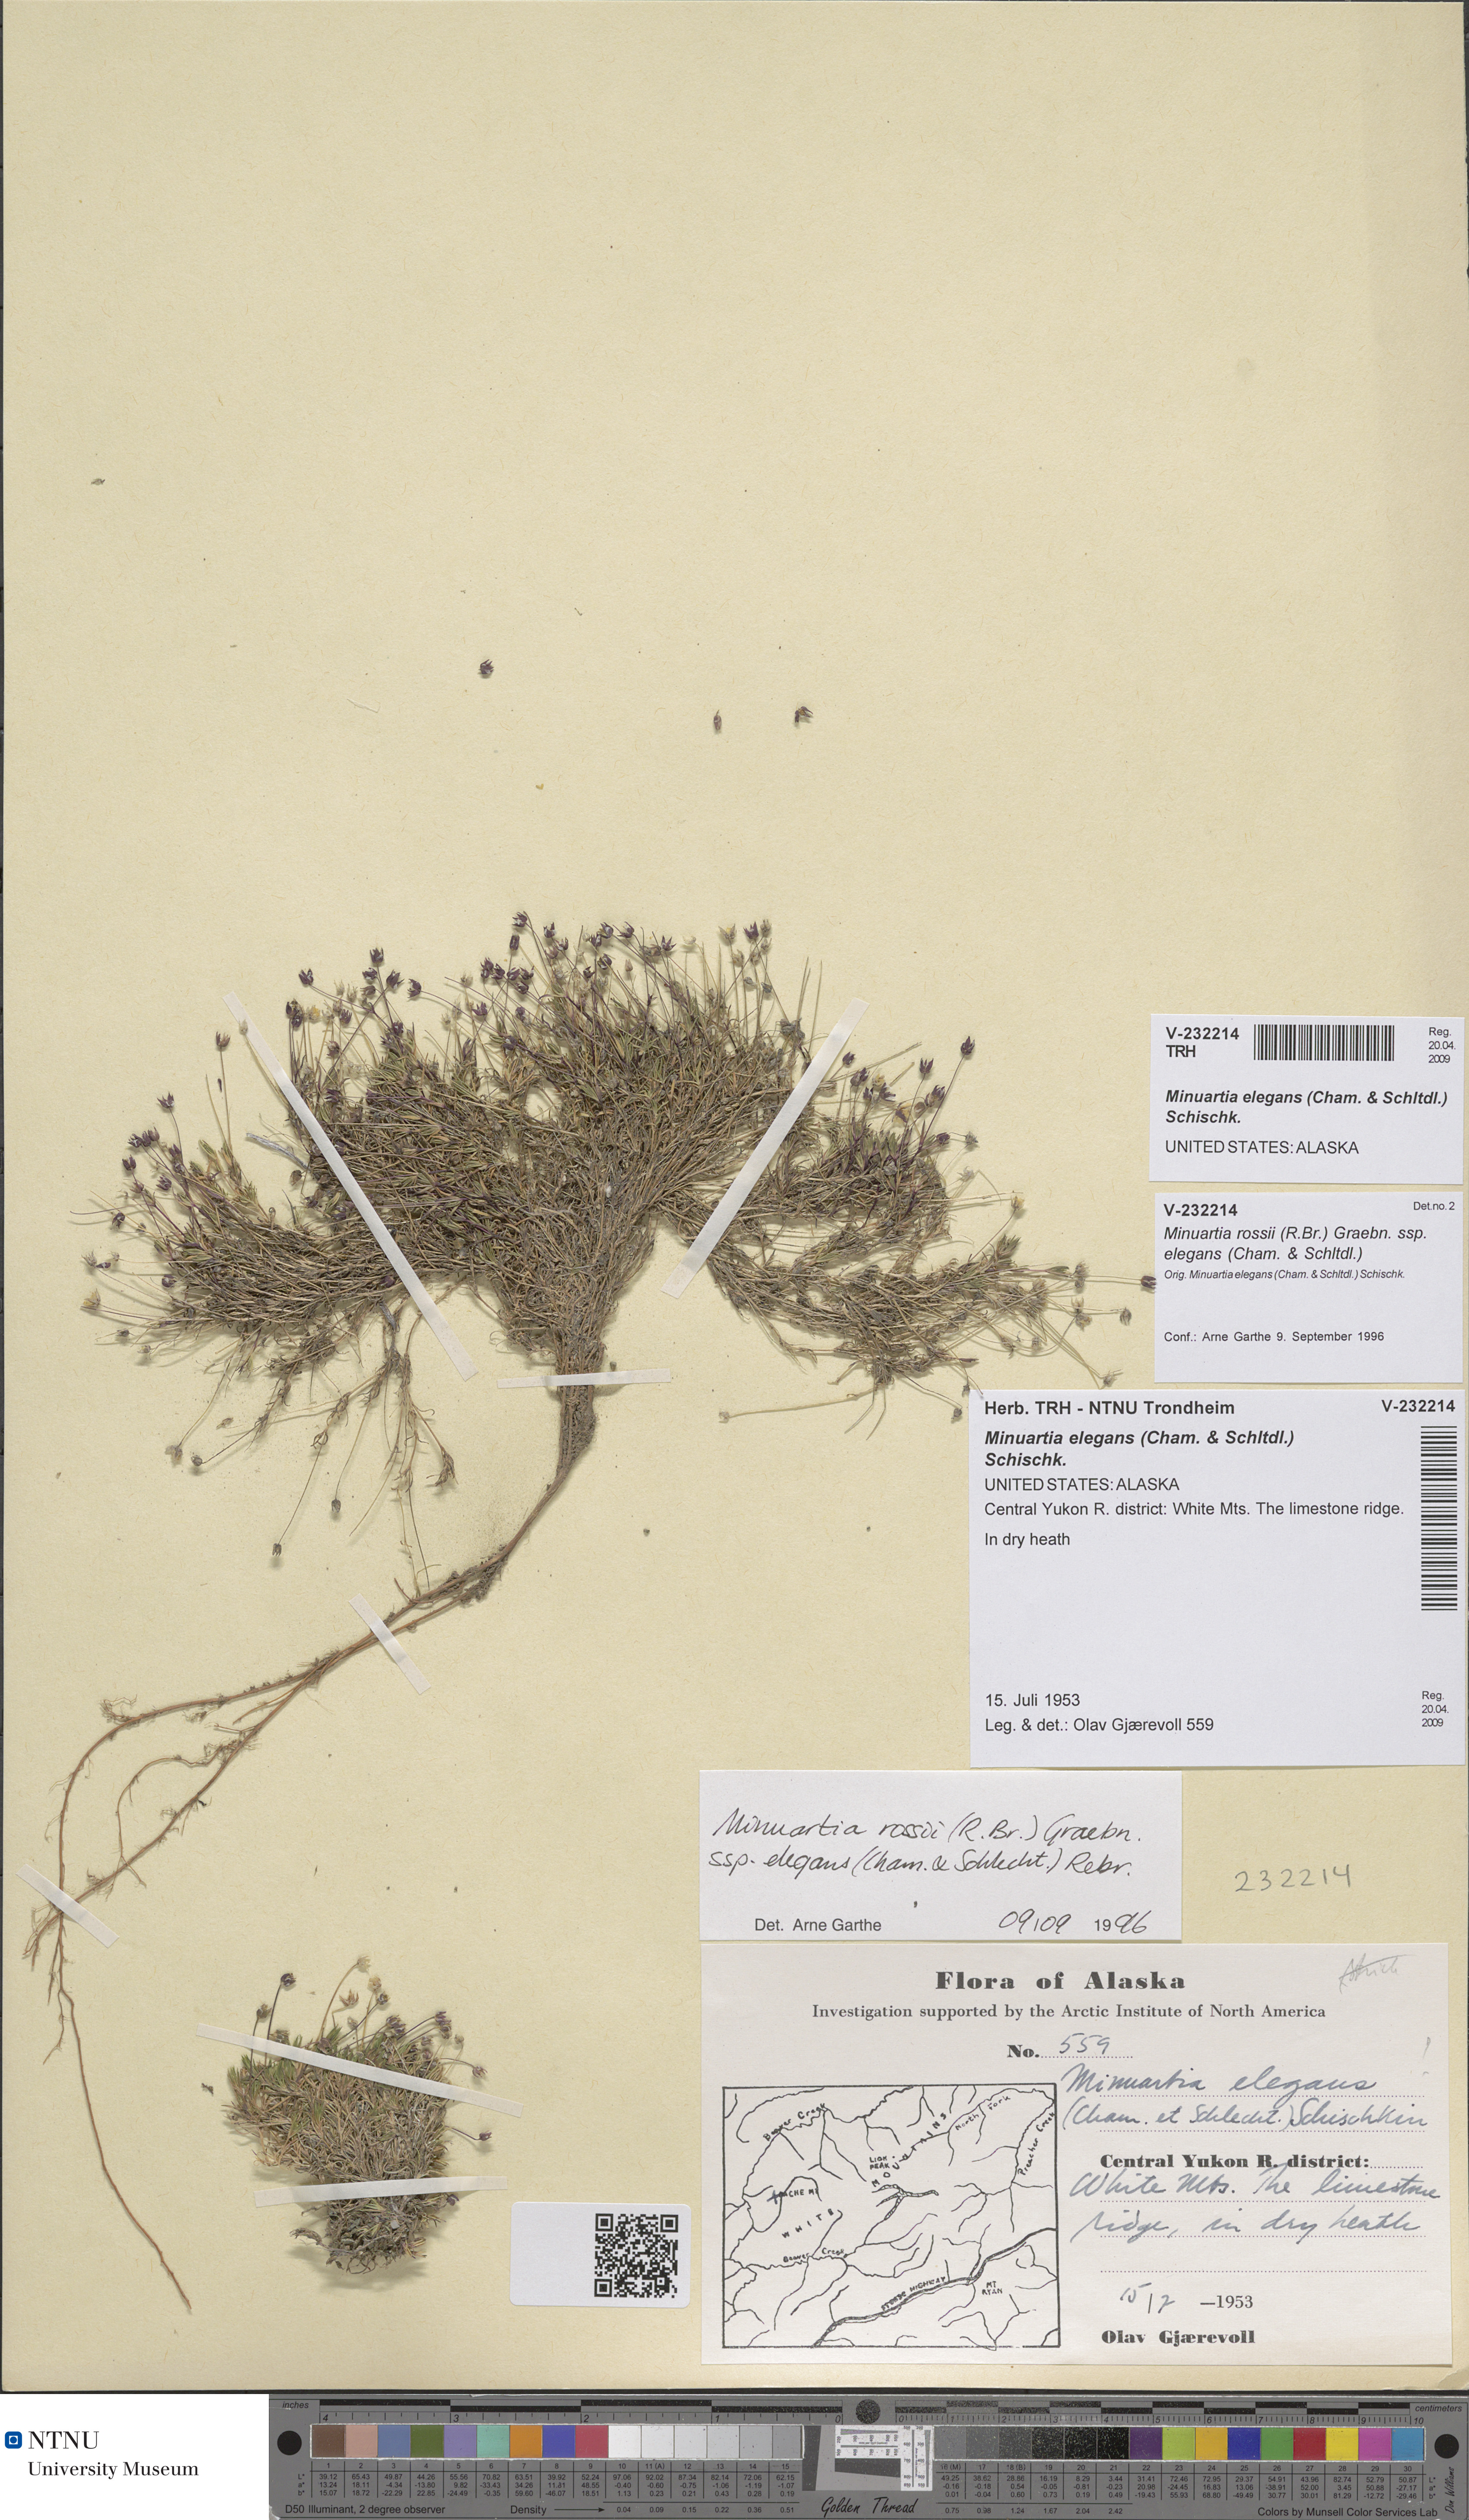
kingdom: Plantae
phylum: Tracheophyta
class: Magnoliopsida
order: Caryophyllales
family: Caryophyllaceae
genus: Sabulina
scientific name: Sabulina elegans
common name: Elegant stitchwort
